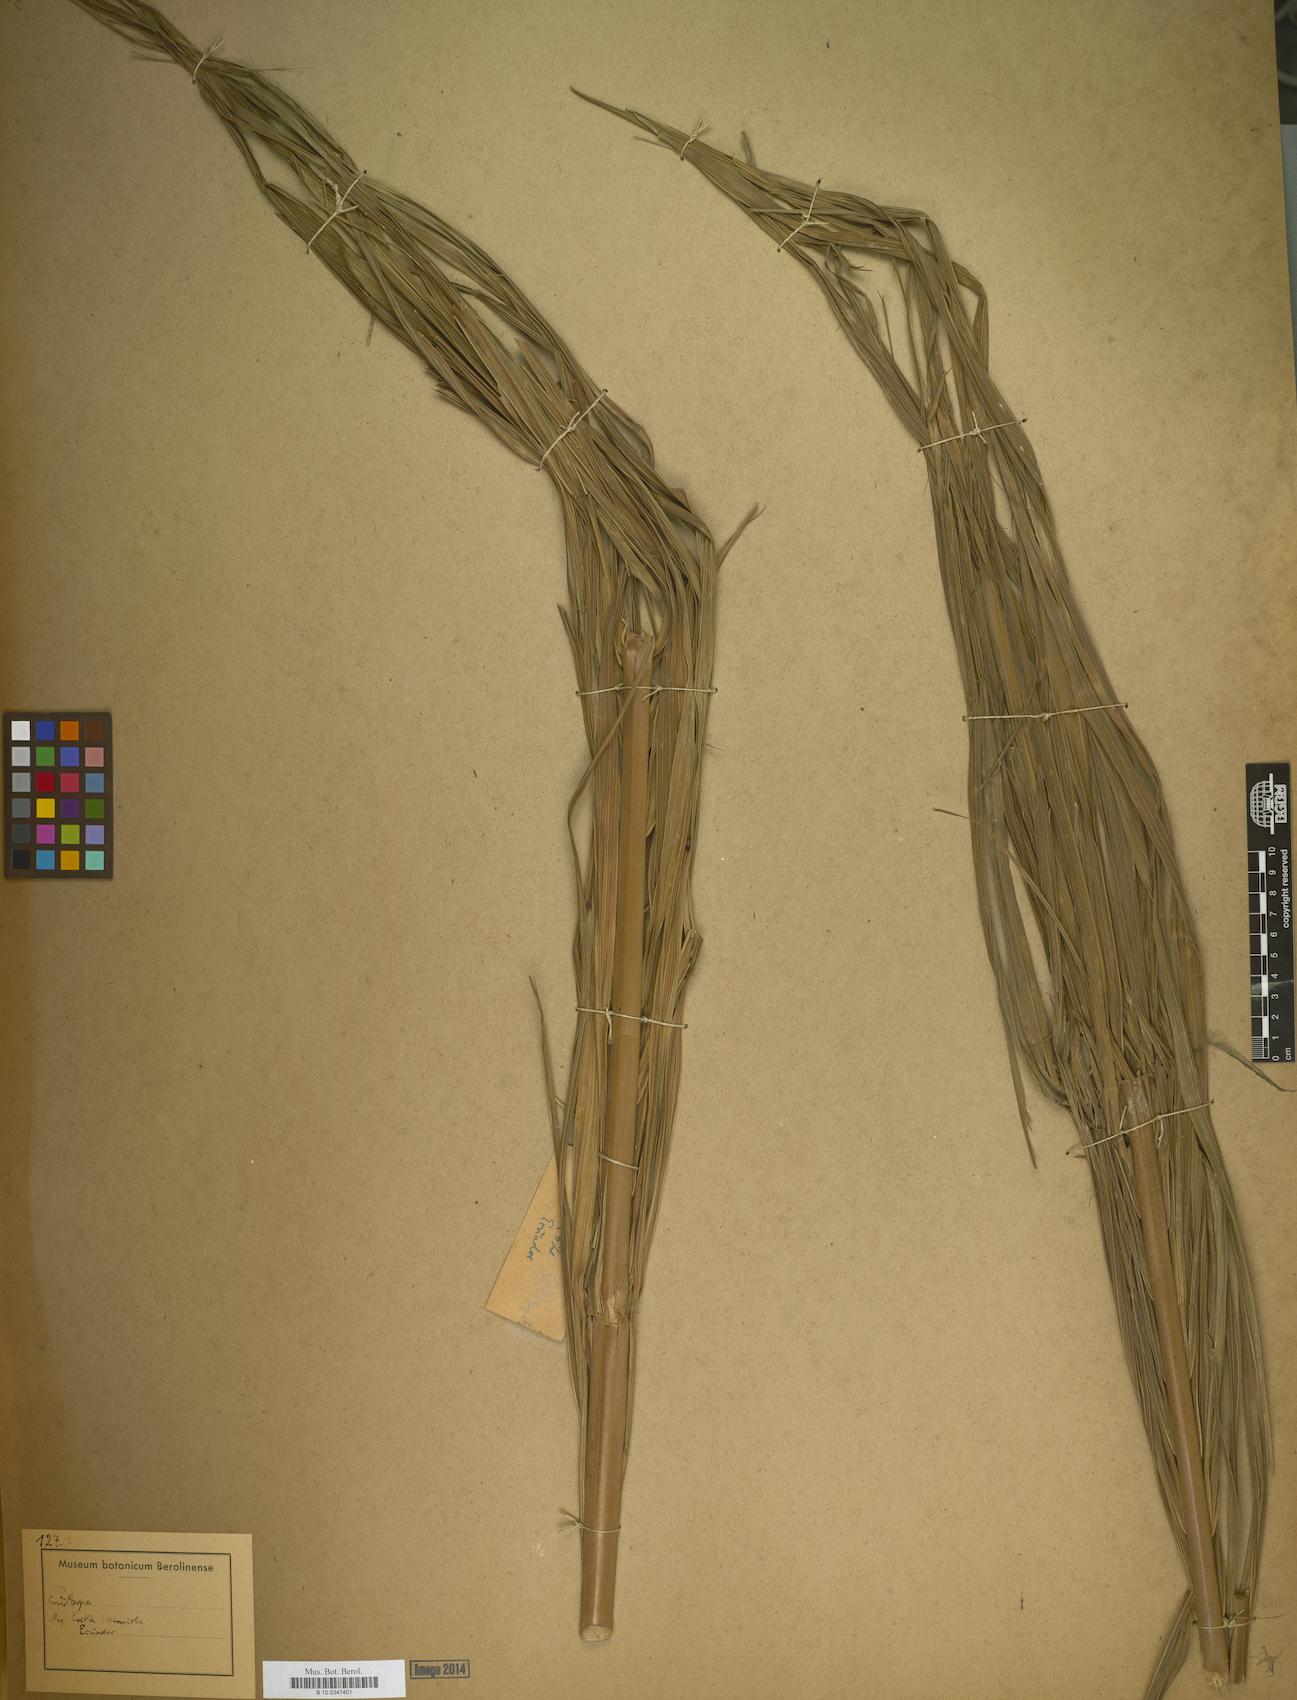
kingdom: Plantae
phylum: Tracheophyta
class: Liliopsida
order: Arecales
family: Arecaceae
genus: Euterpe
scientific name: Euterpe
